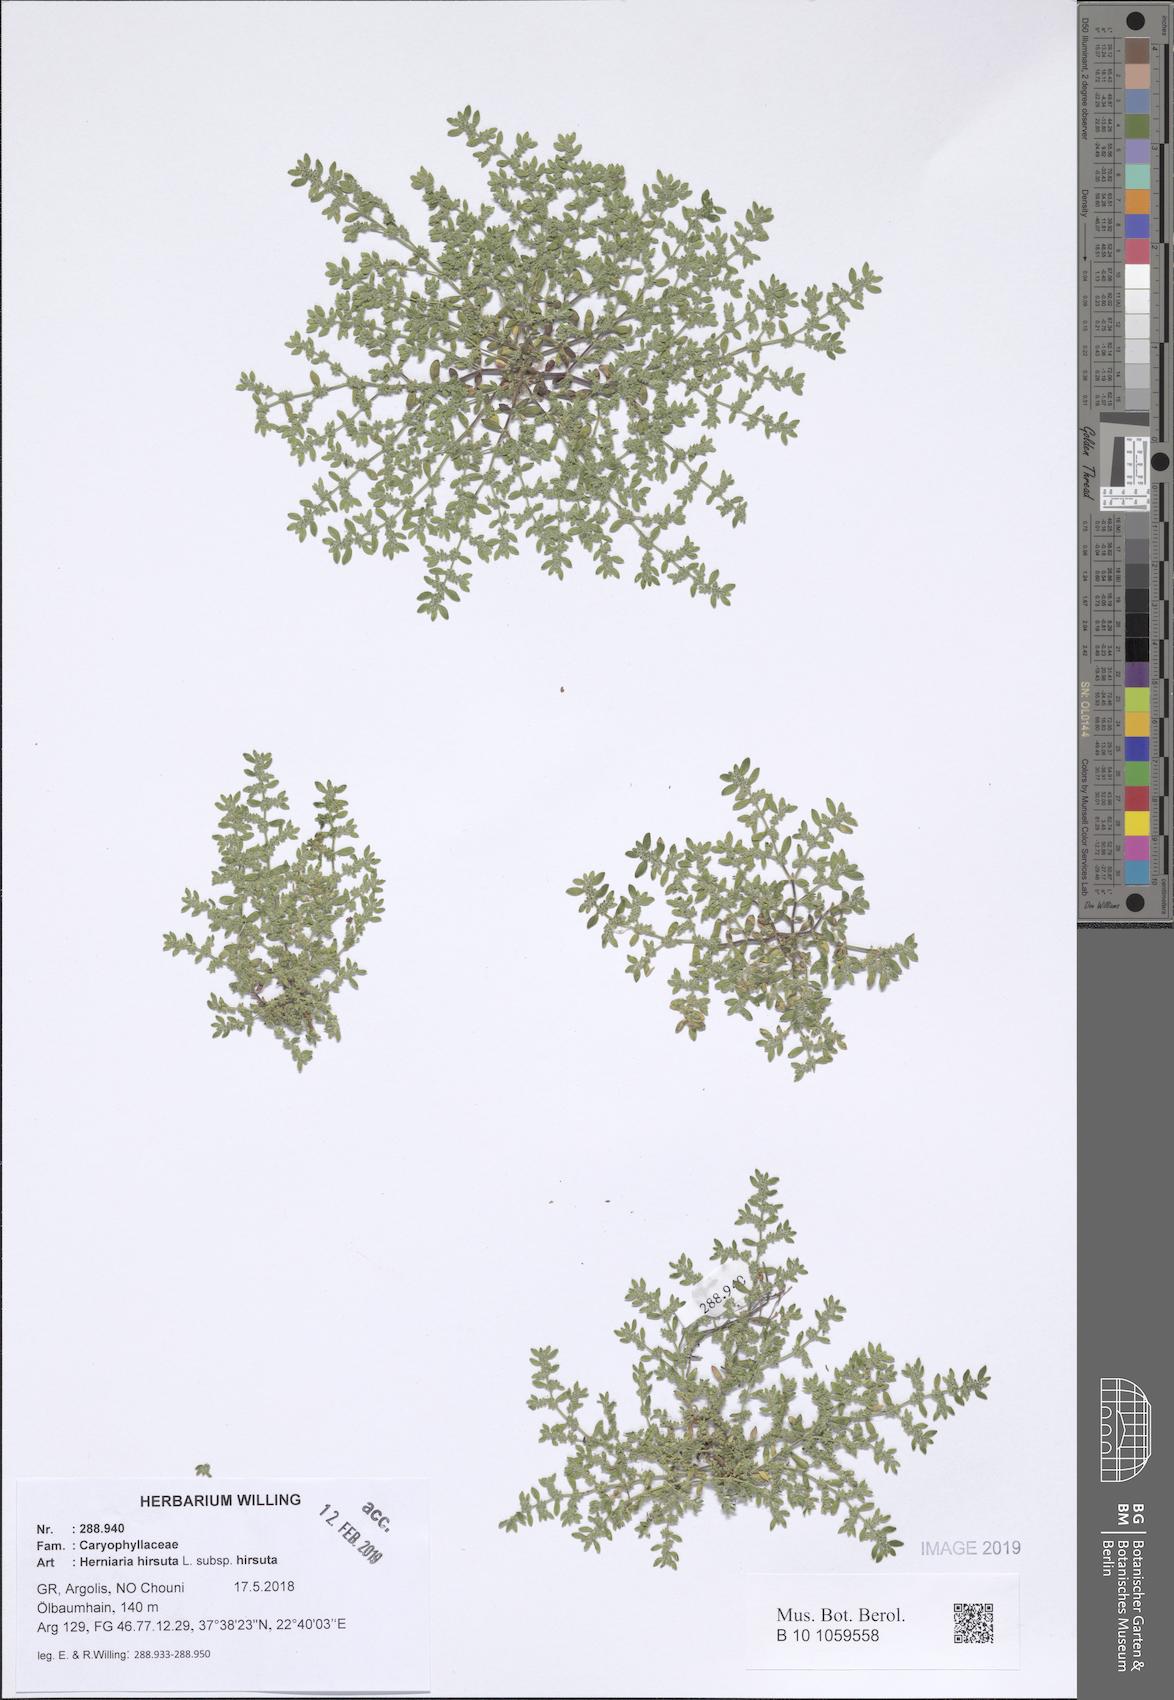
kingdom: Plantae
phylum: Tracheophyta
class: Magnoliopsida
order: Caryophyllales
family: Caryophyllaceae
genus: Herniaria
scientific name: Herniaria hirsuta
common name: Hairy rupturewort
